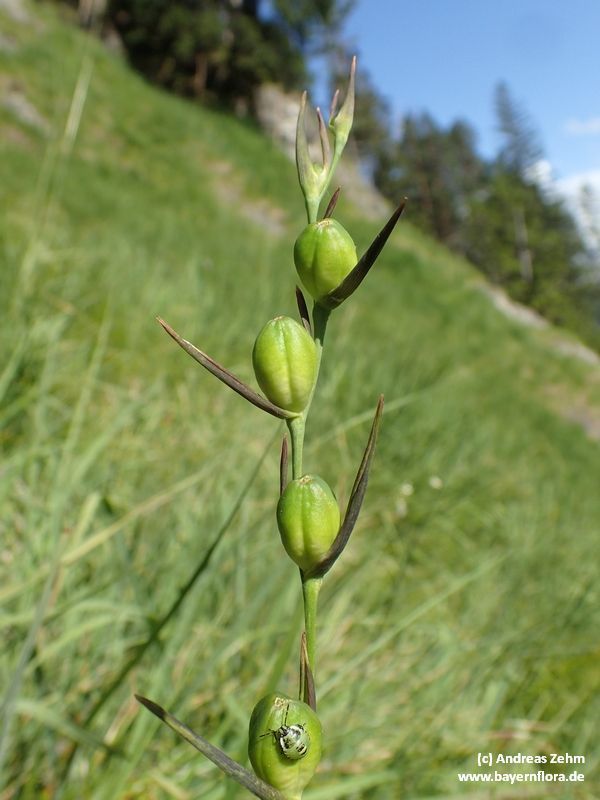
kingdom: Plantae
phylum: Tracheophyta
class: Liliopsida
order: Asparagales
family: Iridaceae
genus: Gladiolus
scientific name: Gladiolus palustris
